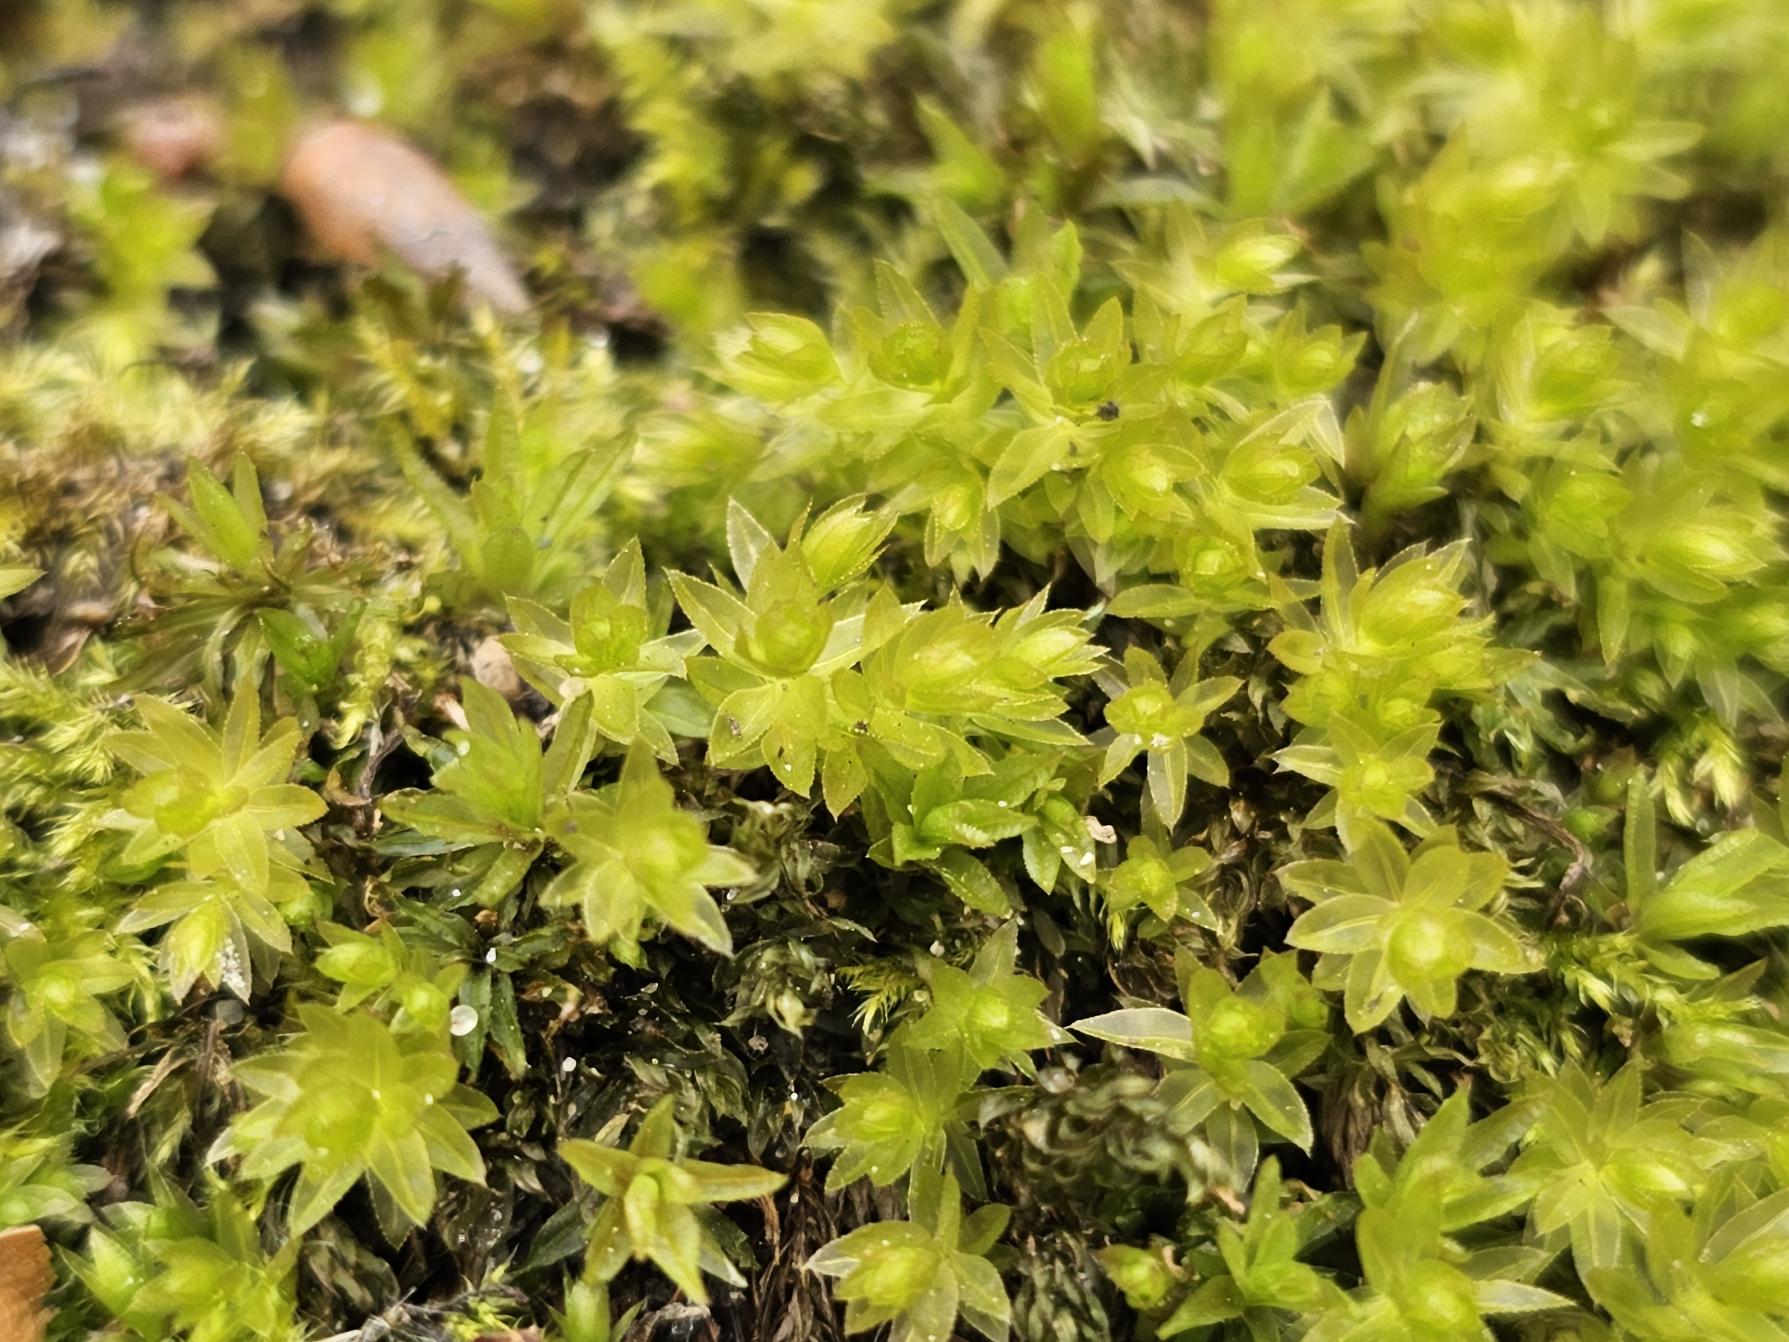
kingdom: Plantae
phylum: Bryophyta
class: Bryopsida
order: Bryales
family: Mniaceae
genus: Mnium
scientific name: Mnium hornum
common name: Brunfiltet stjernemos
